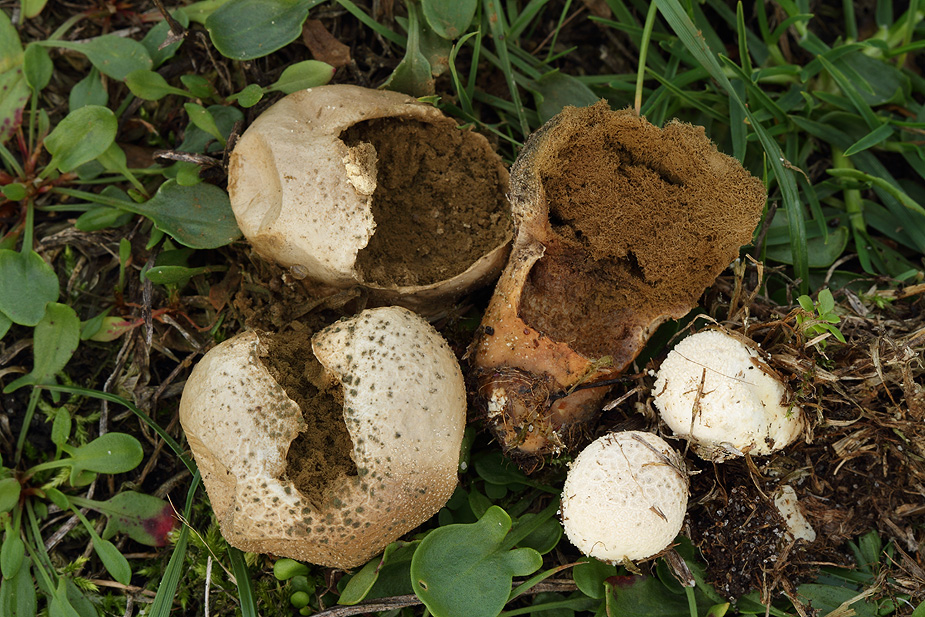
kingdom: Fungi
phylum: Basidiomycota
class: Agaricomycetes
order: Agaricales
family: Lycoperdaceae
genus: Lycoperdon
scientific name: Lycoperdon pratense
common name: flad støvbold
